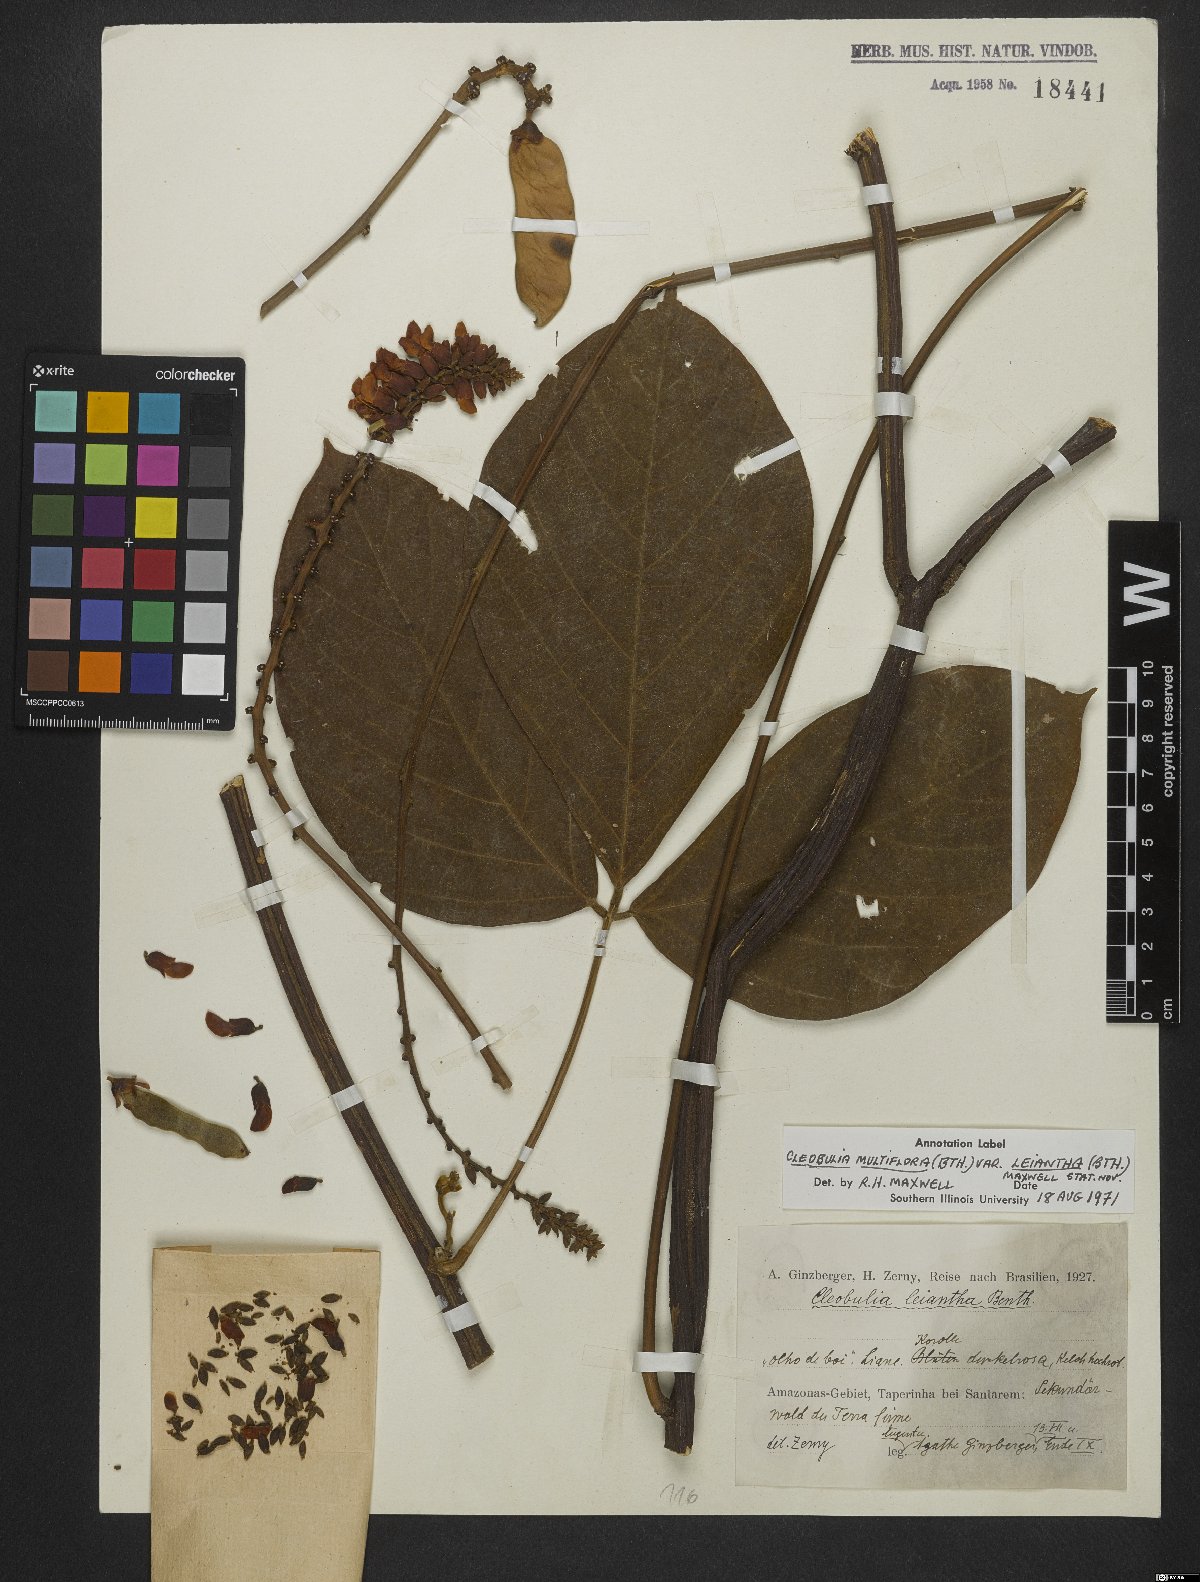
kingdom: Plantae
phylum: Tracheophyta
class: Magnoliopsida
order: Fabales
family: Fabaceae
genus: Cleobulia
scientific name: Cleobulia leiantha
